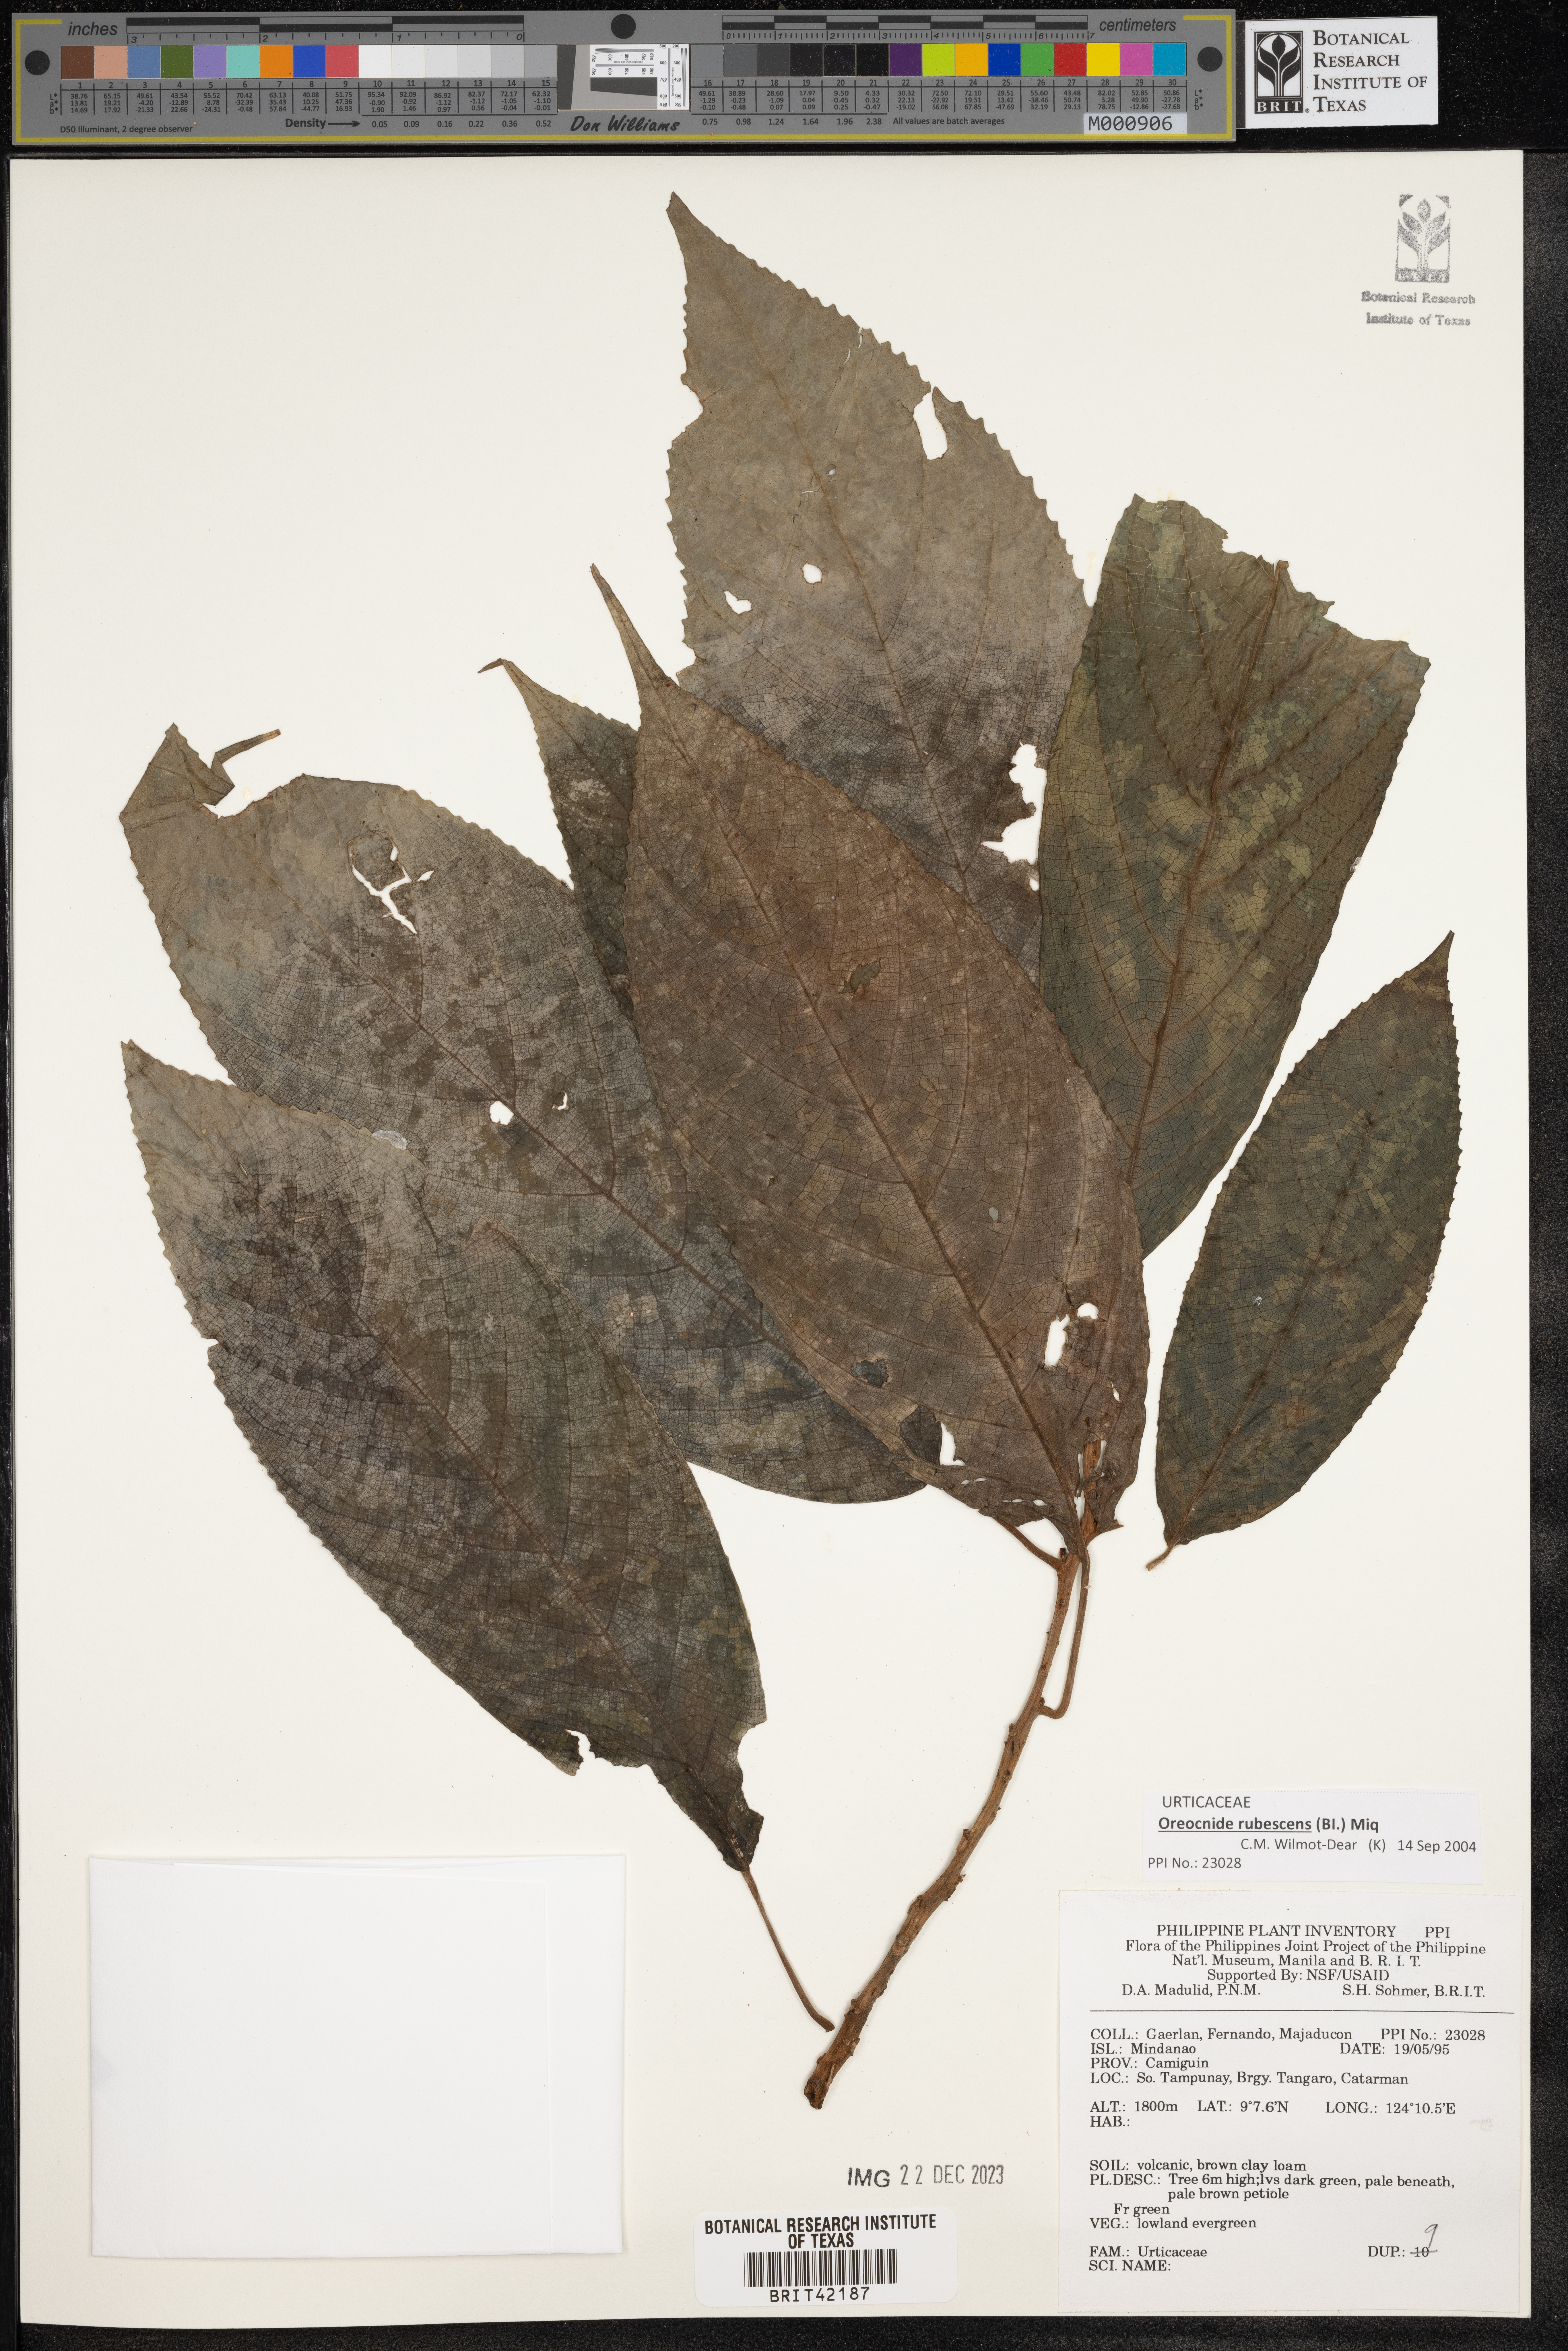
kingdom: Plantae
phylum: Tracheophyta
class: Magnoliopsida
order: Rosales
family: Urticaceae
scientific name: Urticaceae
